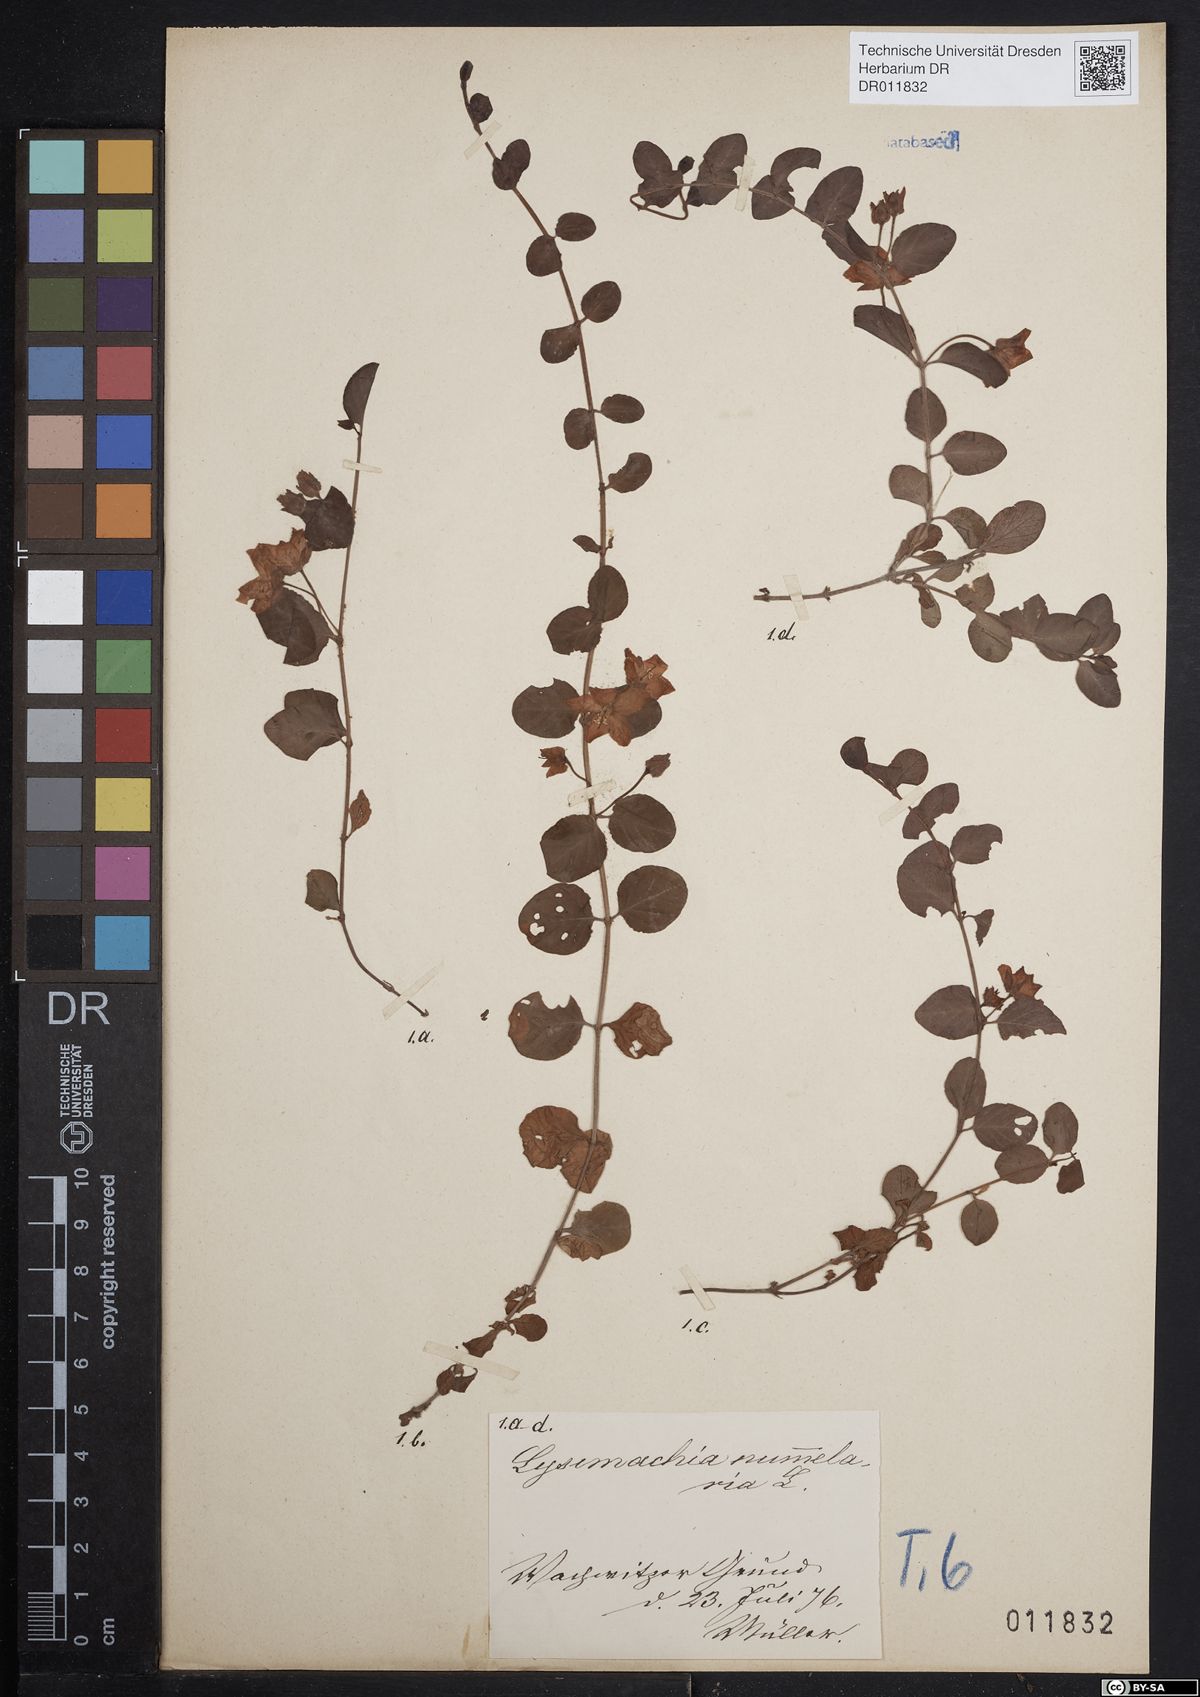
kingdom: Plantae
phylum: Tracheophyta
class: Magnoliopsida
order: Ericales
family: Primulaceae
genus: Lysimachia
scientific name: Lysimachia nummularia
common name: Moneywort
